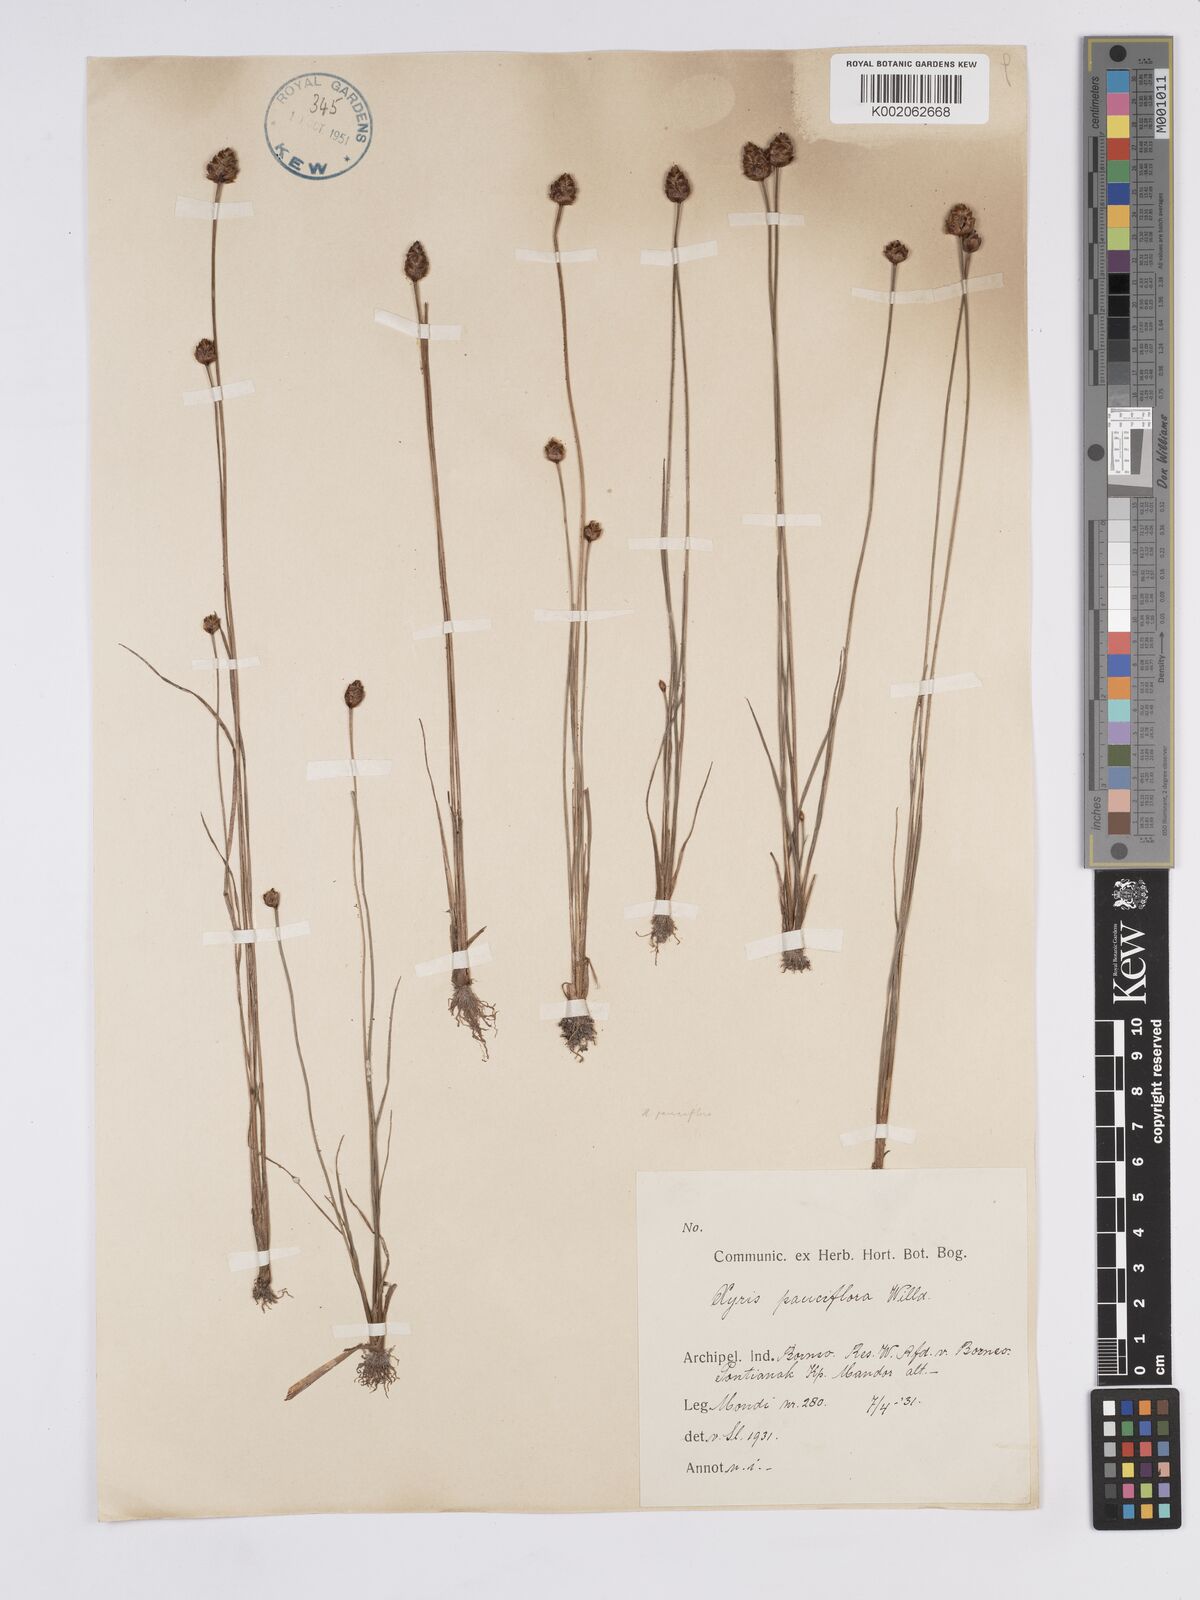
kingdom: Plantae
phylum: Tracheophyta
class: Liliopsida
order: Poales
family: Xyridaceae
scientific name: Xyridaceae
